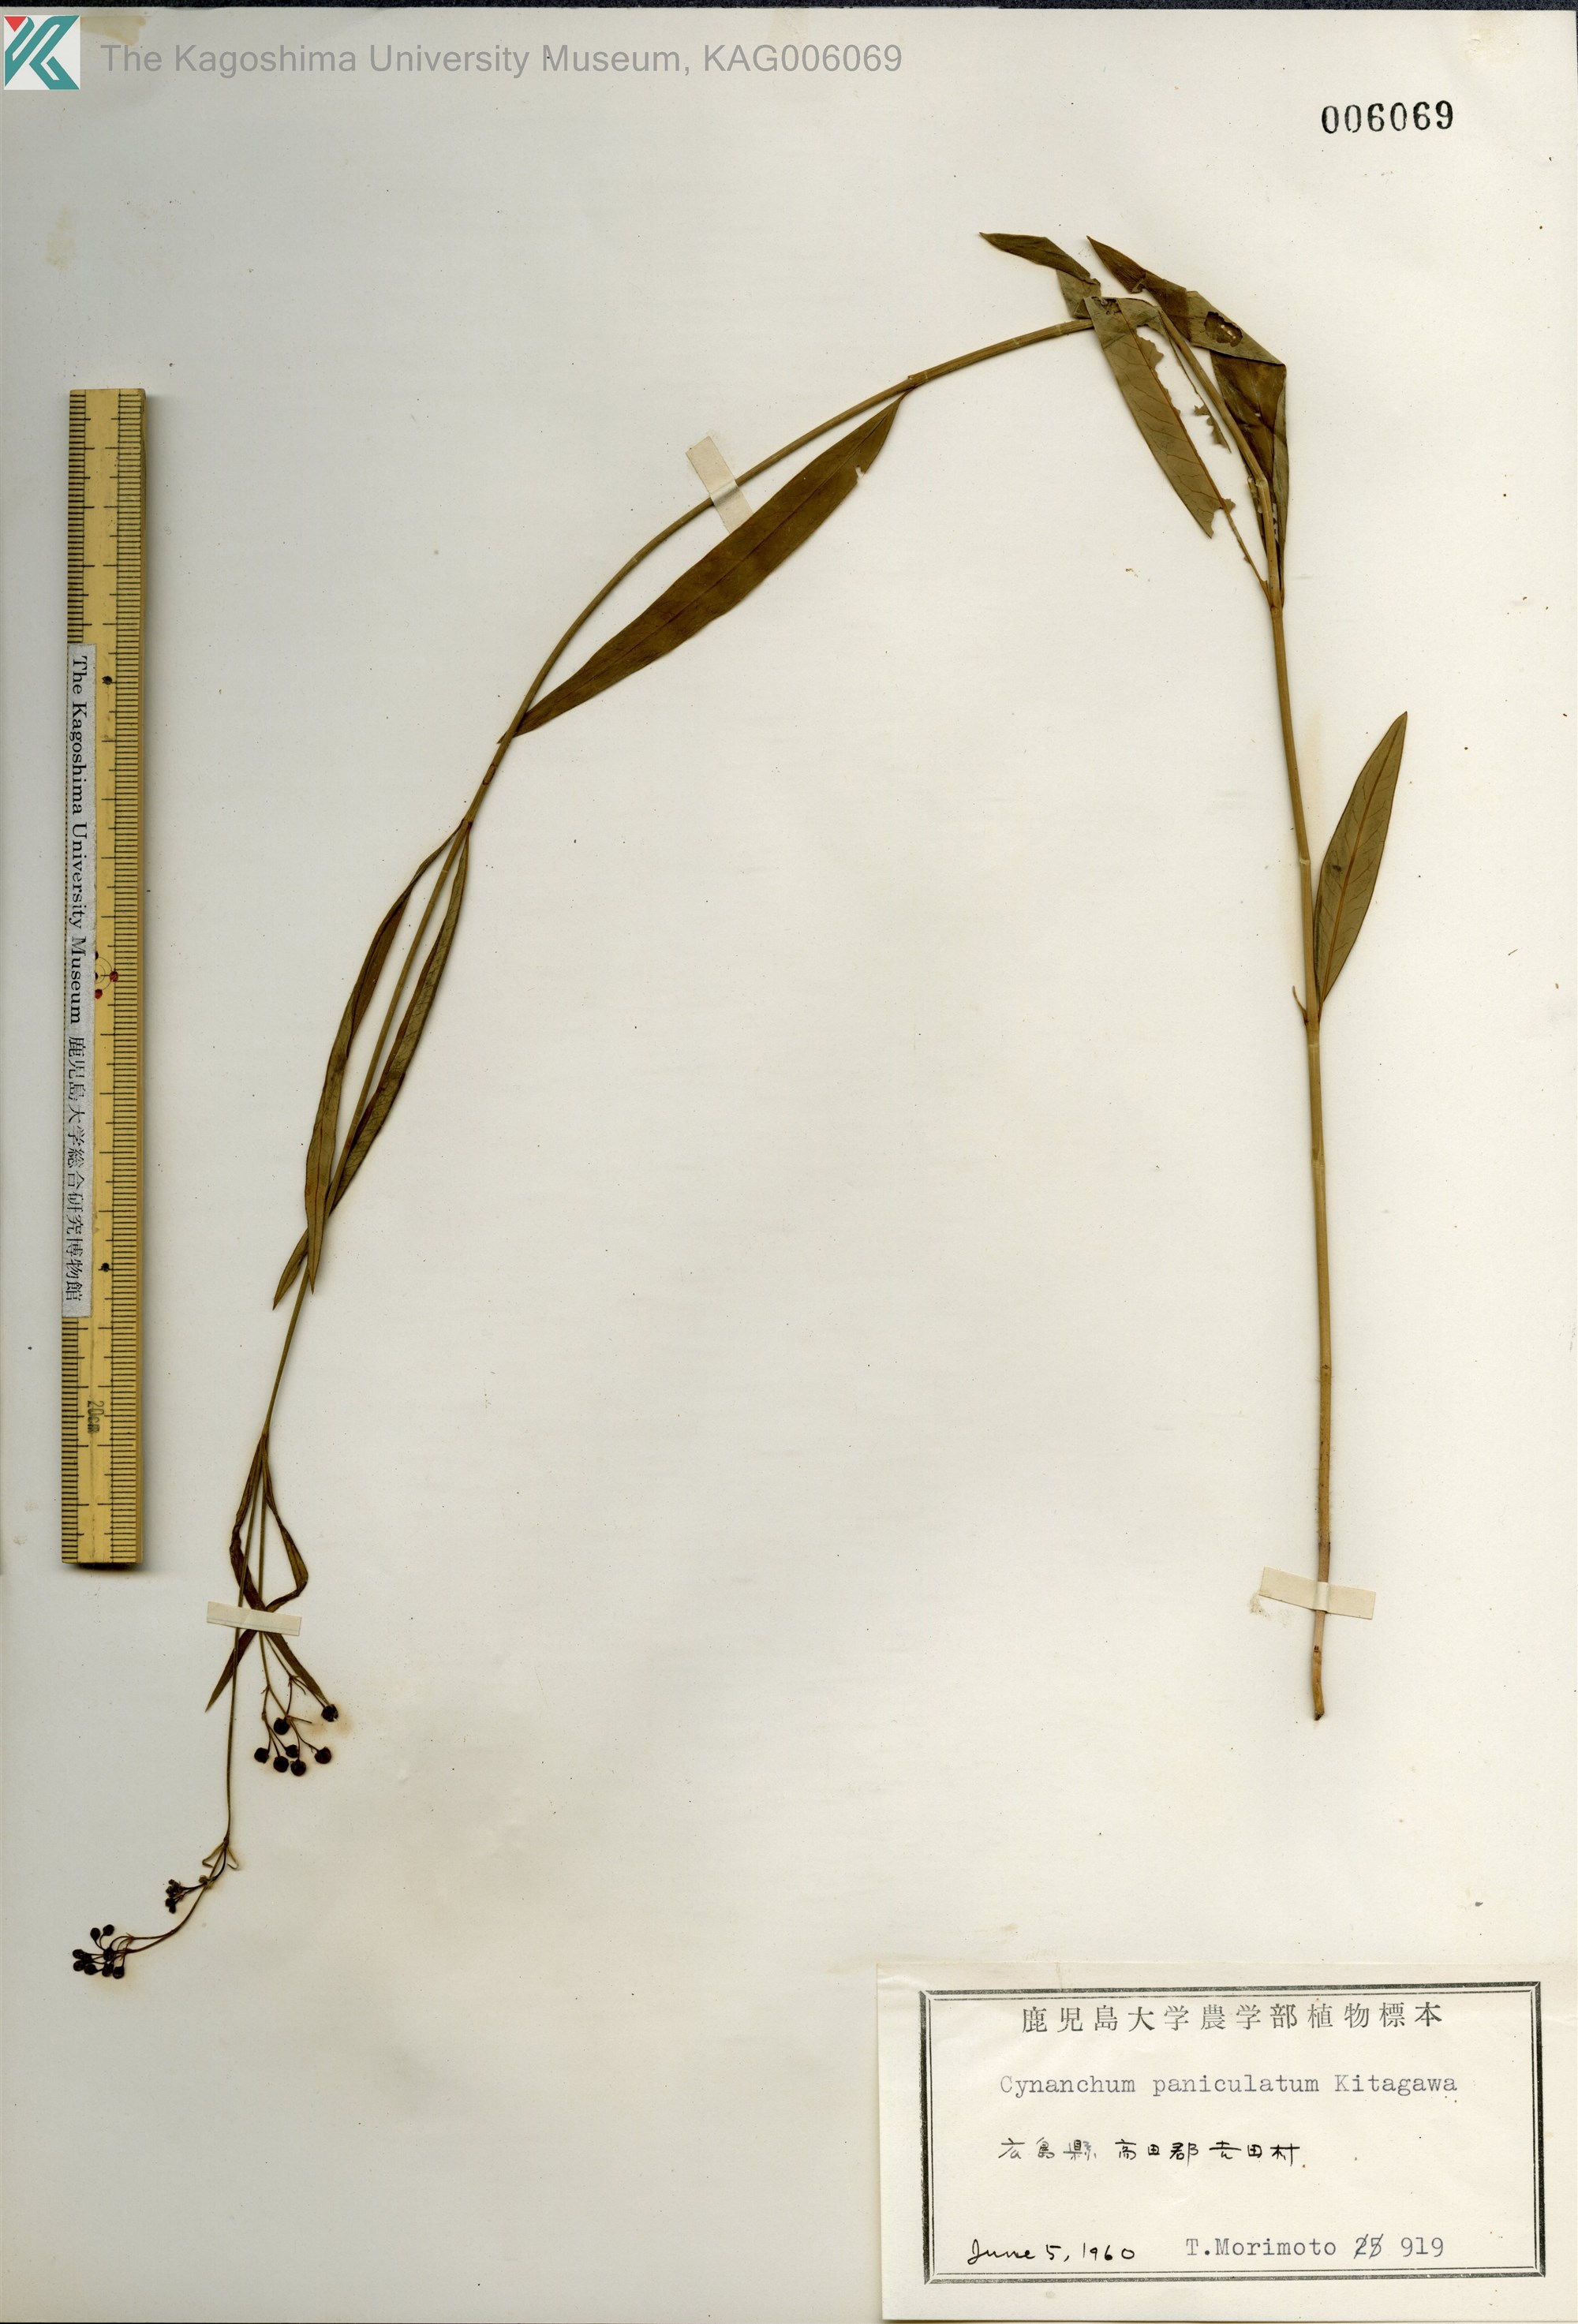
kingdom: Plantae
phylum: Tracheophyta
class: Magnoliopsida
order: Gentianales
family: Apocynaceae
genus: Vincetoxicum
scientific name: Vincetoxicum mukdenense
